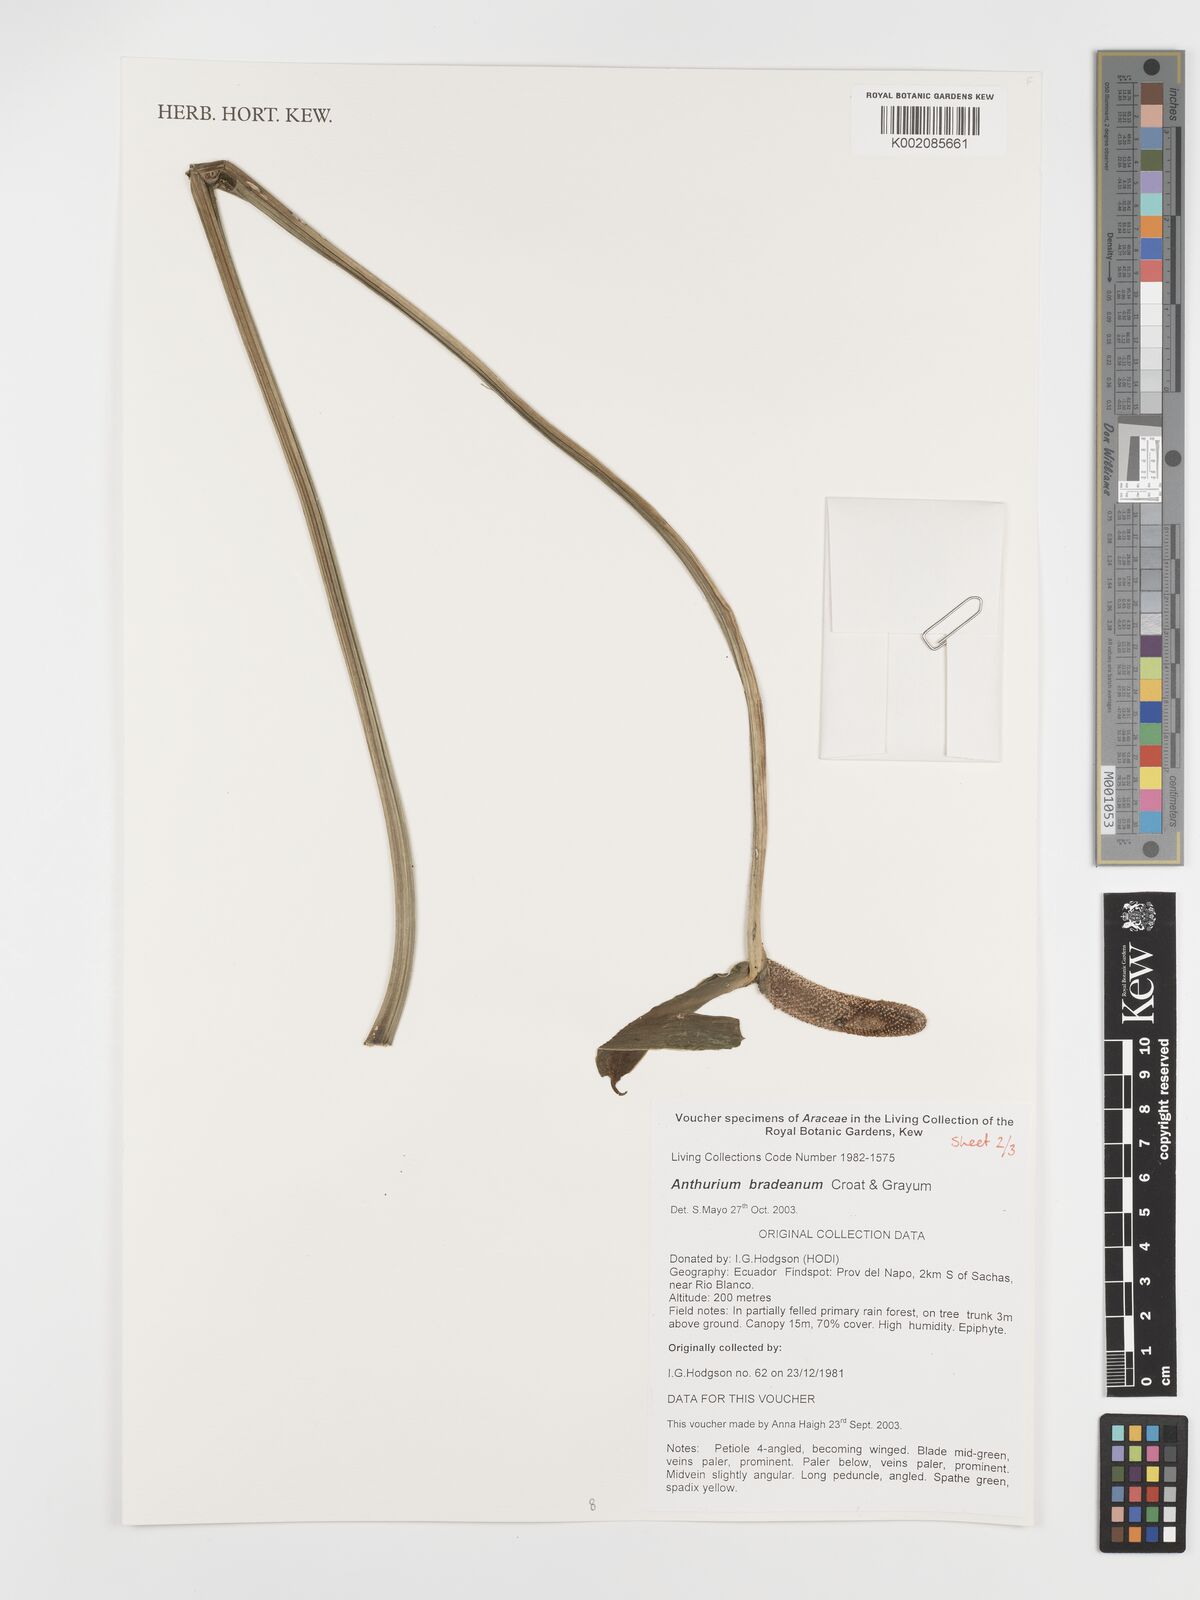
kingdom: Plantae
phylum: Tracheophyta
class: Liliopsida
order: Alismatales
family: Araceae
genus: Anthurium
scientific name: Anthurium bradeanum
